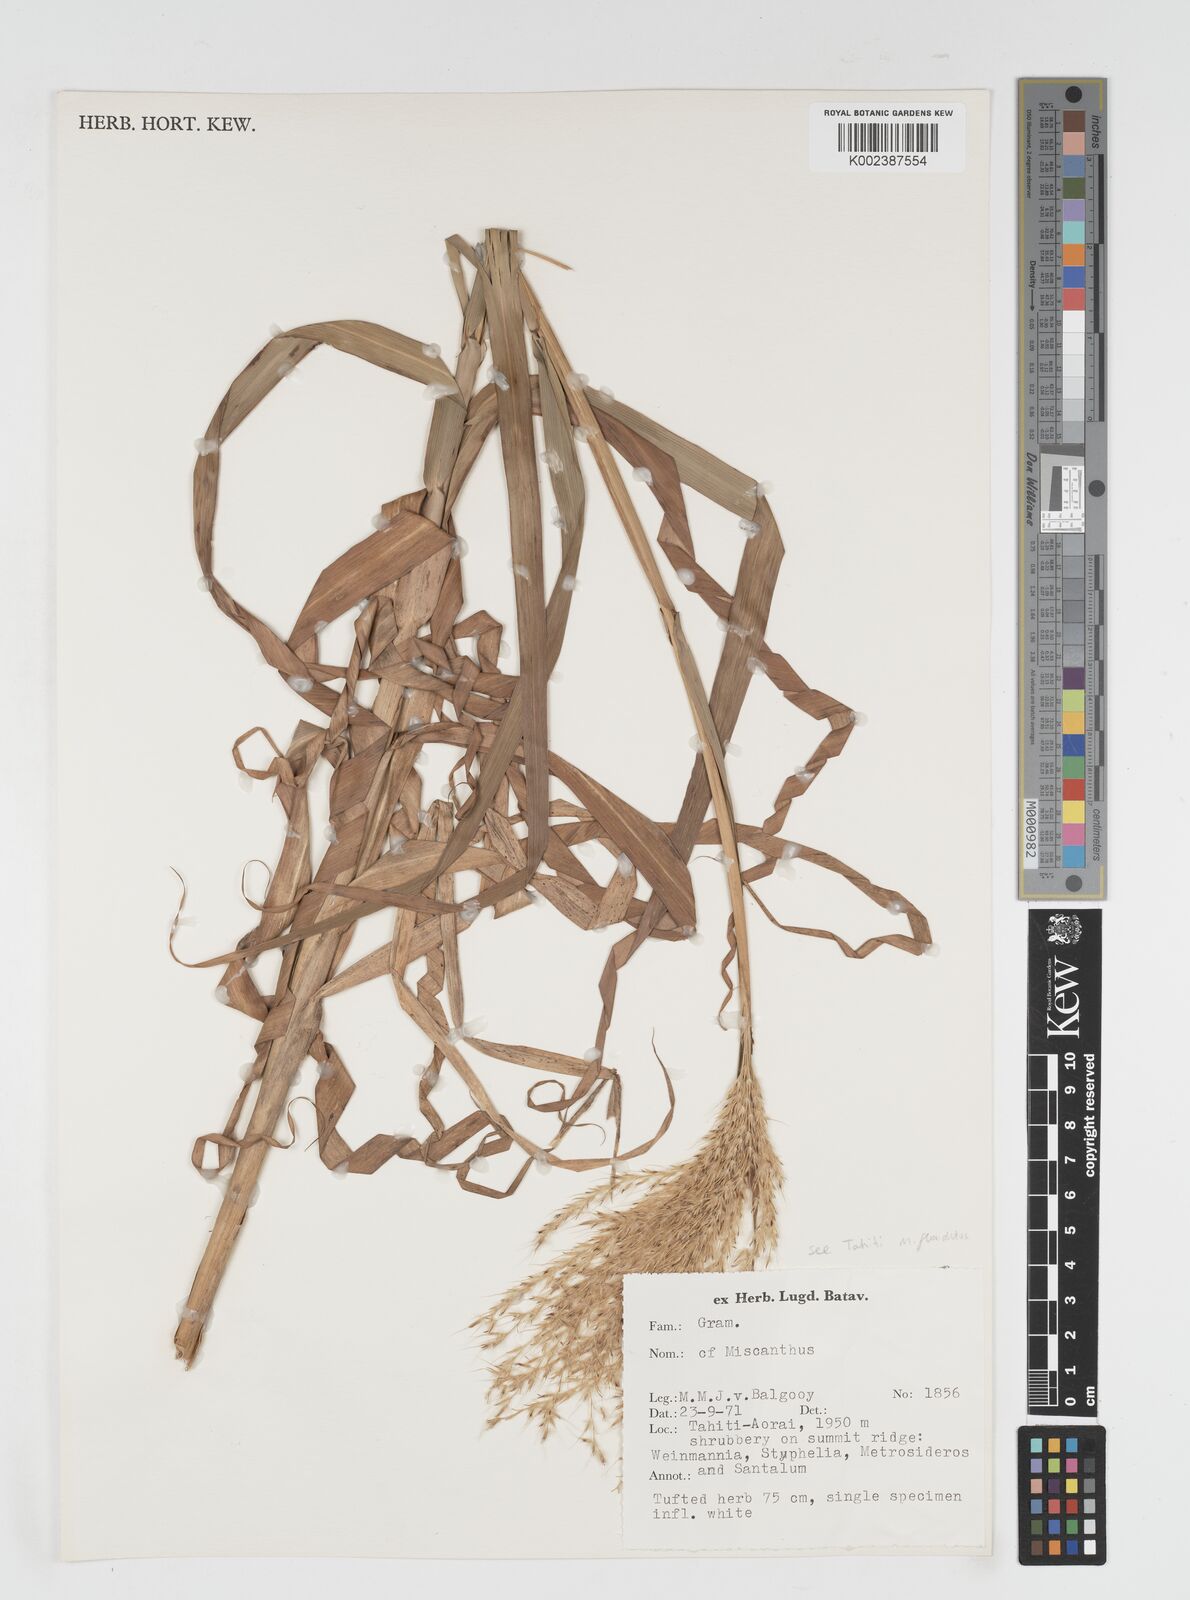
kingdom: Plantae
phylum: Tracheophyta
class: Liliopsida
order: Poales
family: Poaceae
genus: Miscanthus
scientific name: Miscanthus
